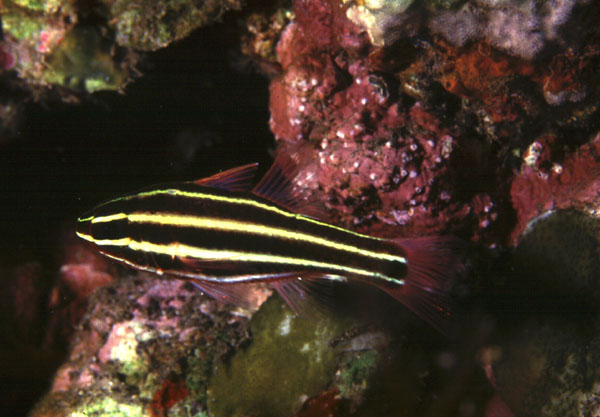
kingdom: Animalia
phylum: Chordata
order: Perciformes
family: Apogonidae
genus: Ostorhinchus
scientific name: Ostorhinchus nigrofasciatus
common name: Blackstripe cardinalfish
